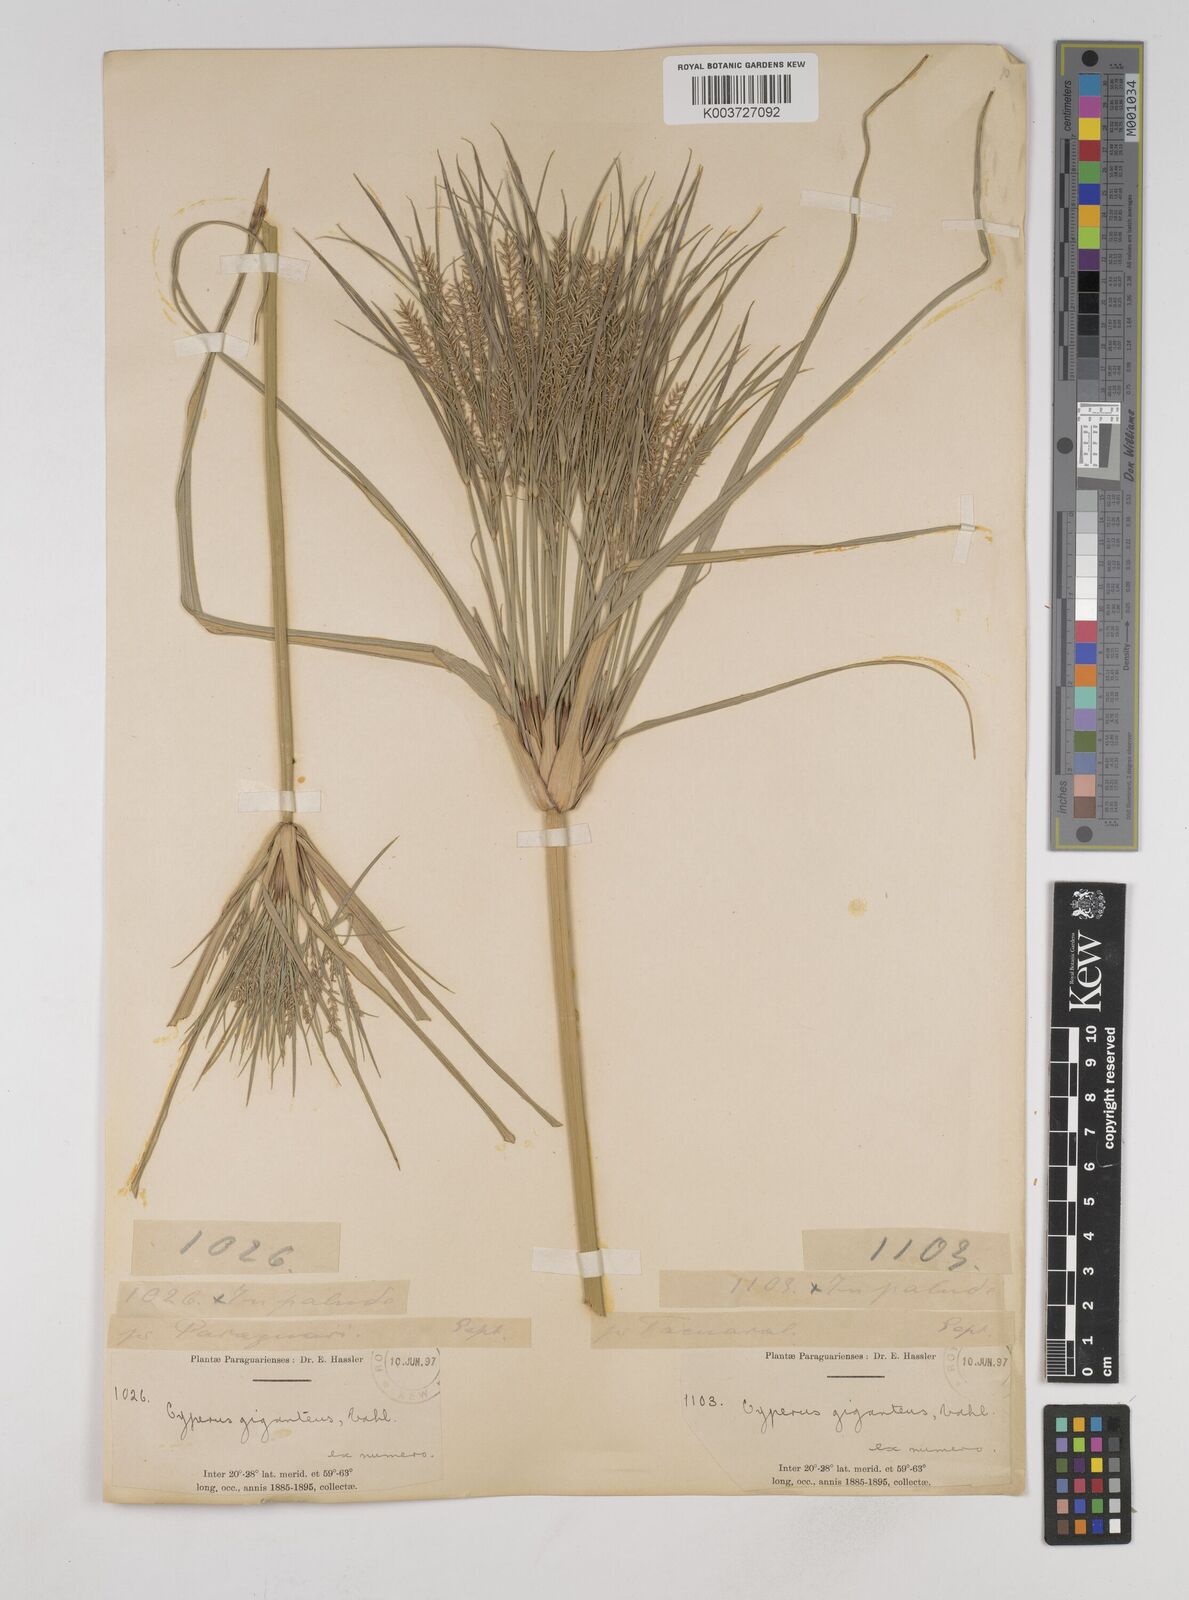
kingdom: Plantae
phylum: Tracheophyta
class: Liliopsida
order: Poales
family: Cyperaceae
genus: Cyperus
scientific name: Cyperus giganteus
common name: Giant flat sedge
